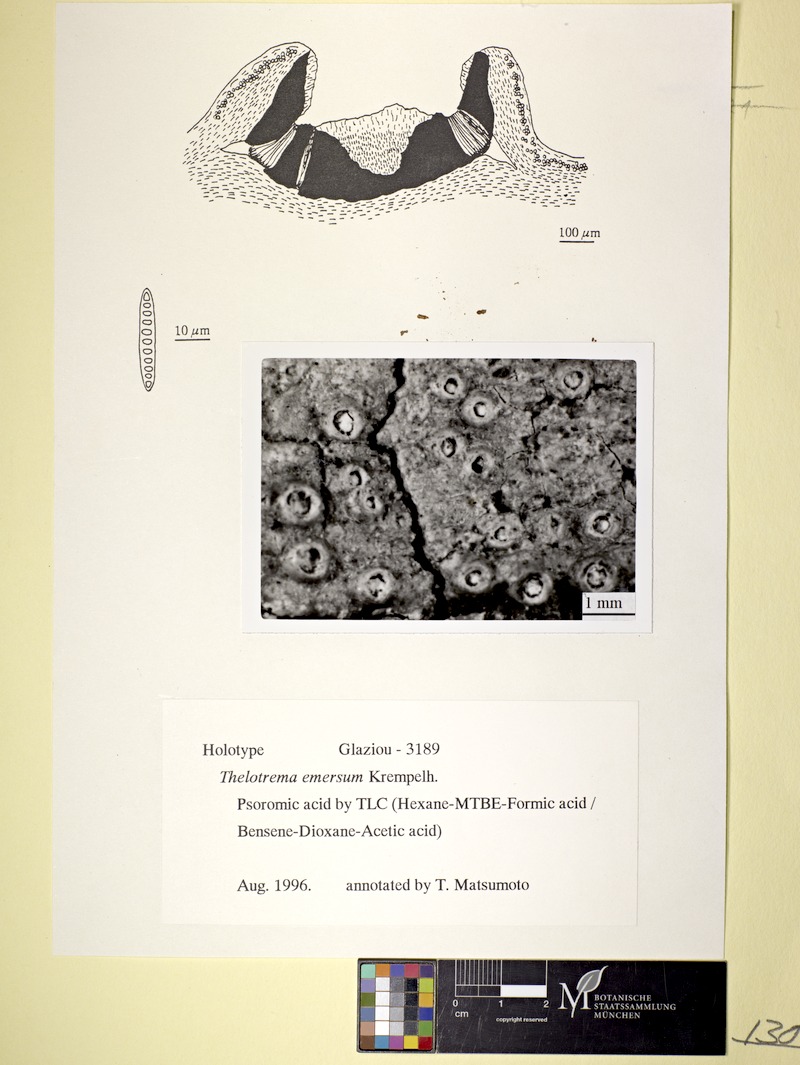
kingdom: Fungi
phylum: Ascomycota
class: Lecanoromycetes
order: Ostropales
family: Graphidaceae
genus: Rhabdodiscus
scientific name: Rhabdodiscus emersus
